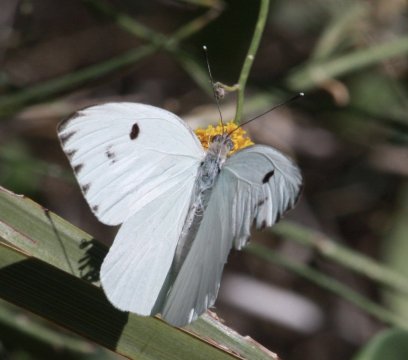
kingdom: Animalia
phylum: Arthropoda
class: Insecta
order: Lepidoptera
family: Pieridae
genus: Ganyra
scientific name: Ganyra howarthi
